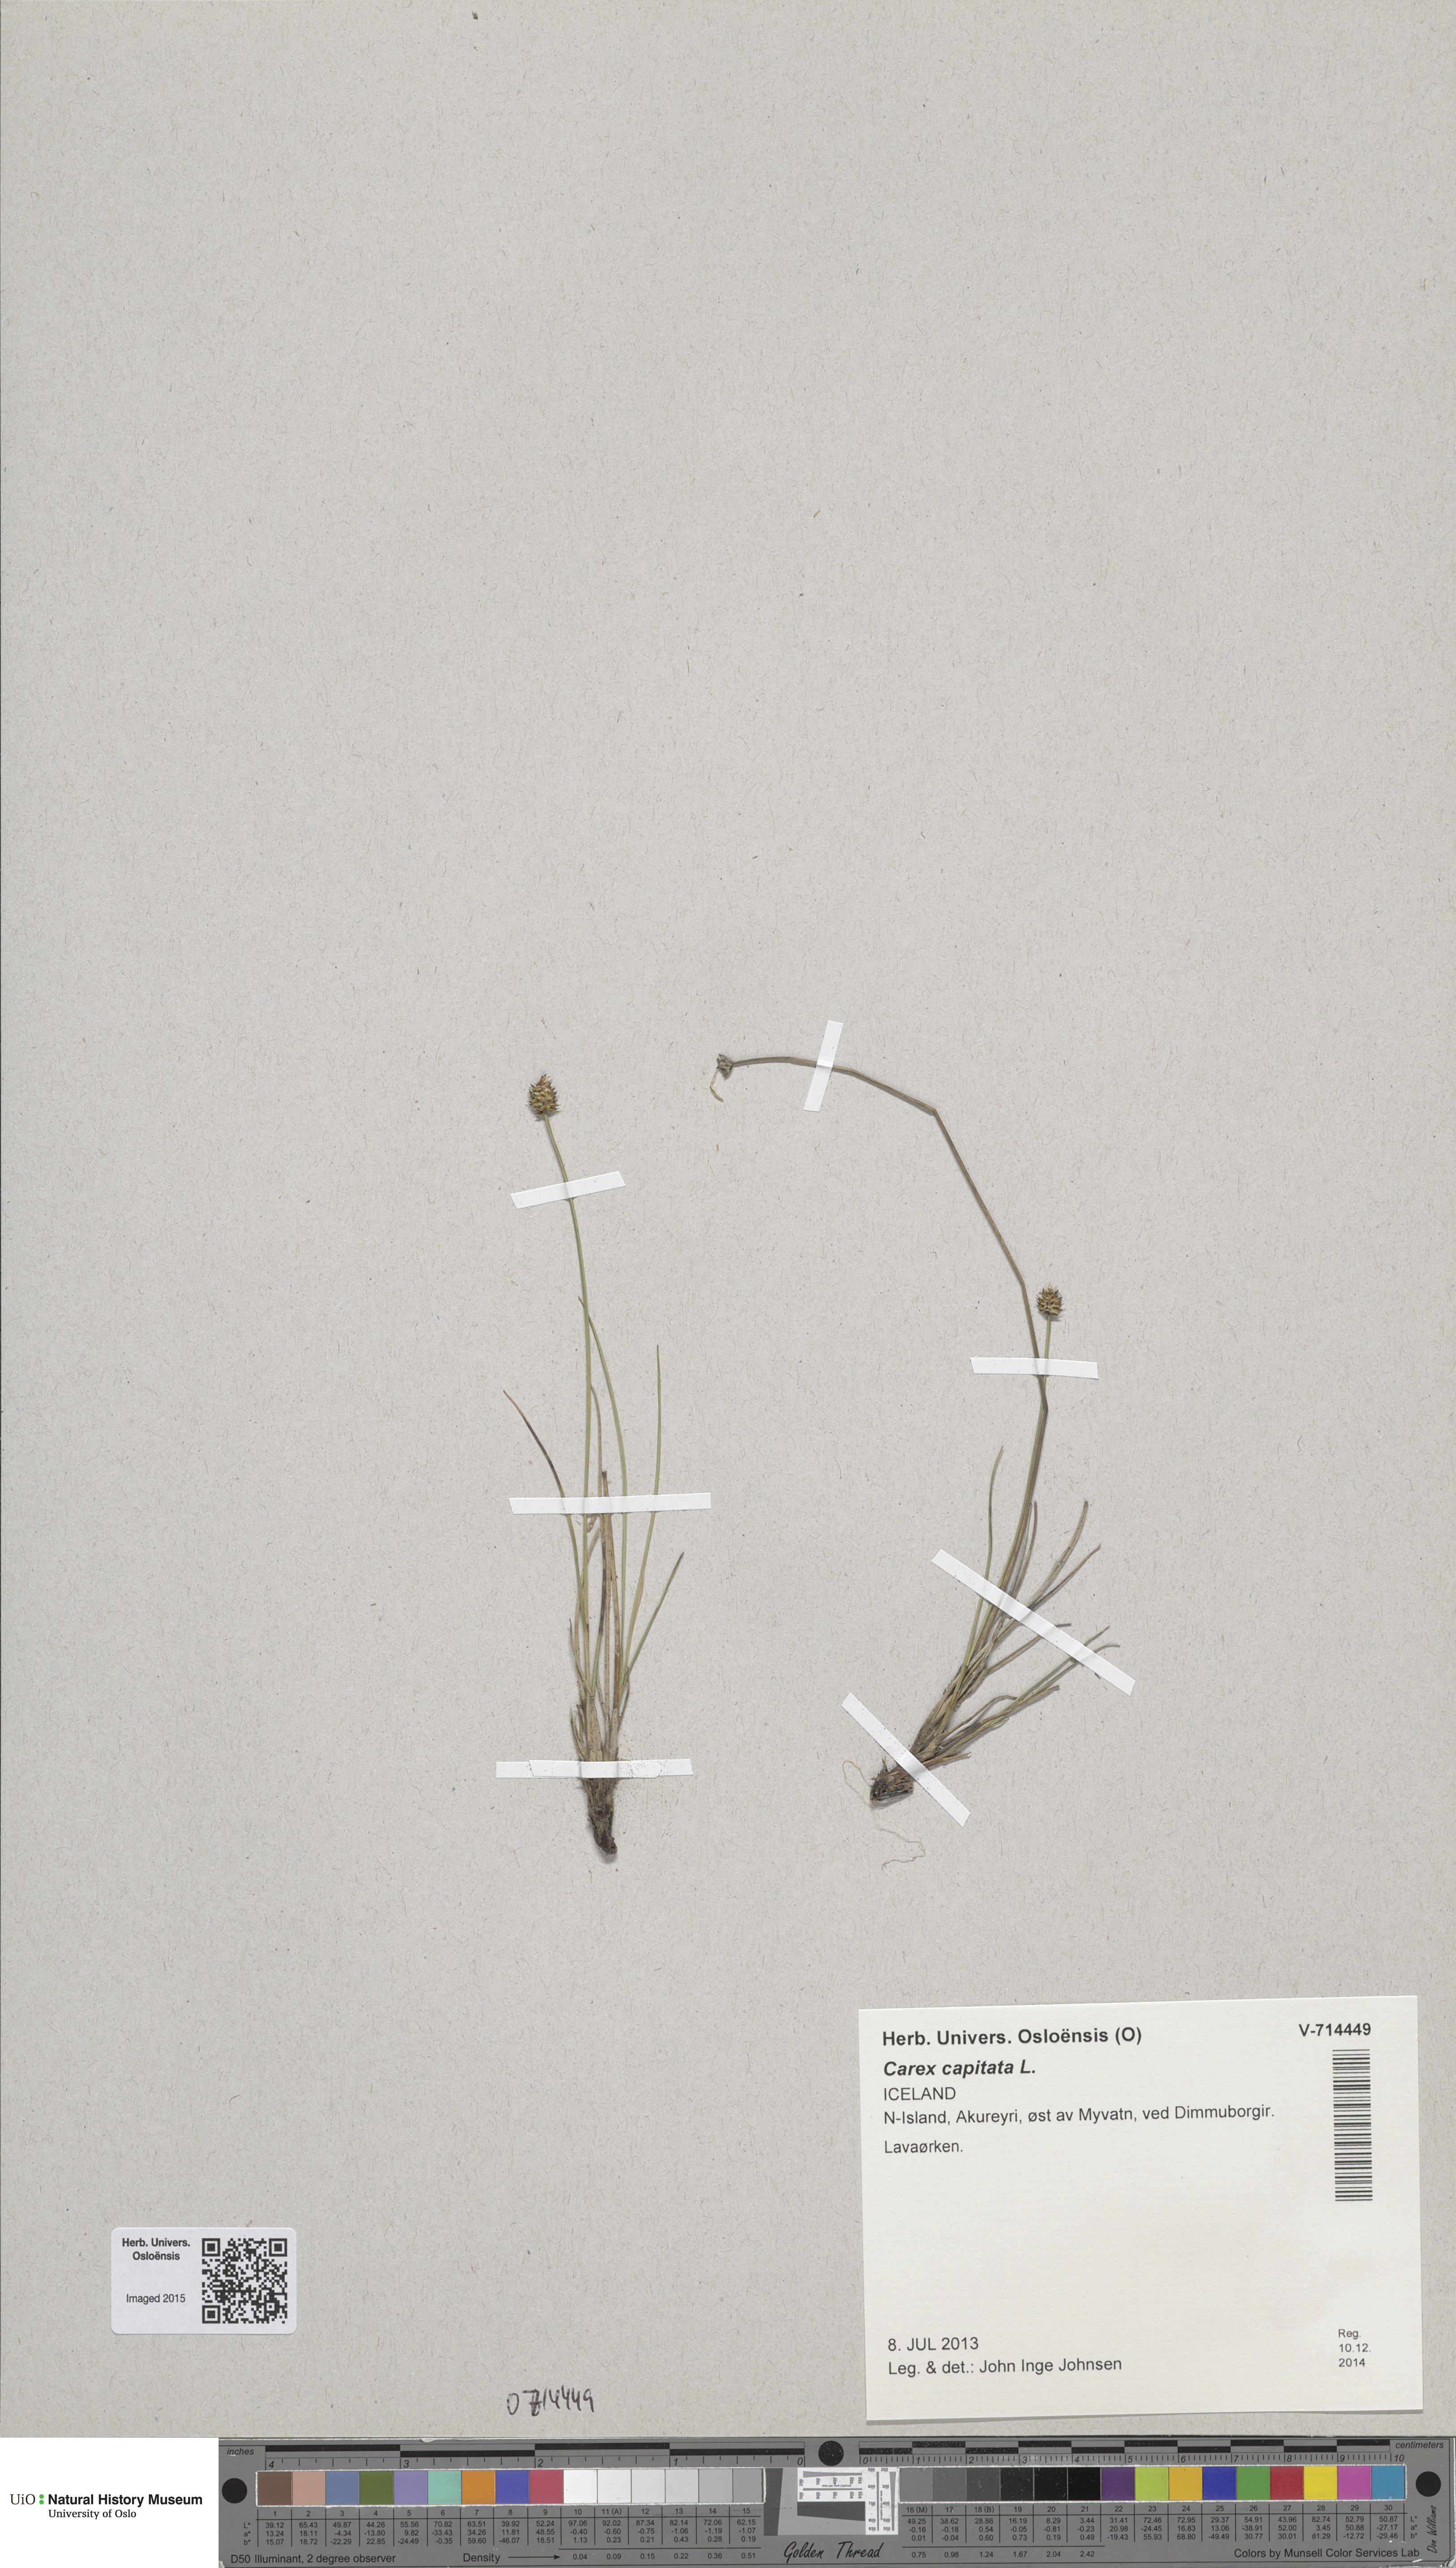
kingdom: Plantae
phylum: Tracheophyta
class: Liliopsida
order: Poales
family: Cyperaceae
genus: Carex
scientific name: Carex capitata
